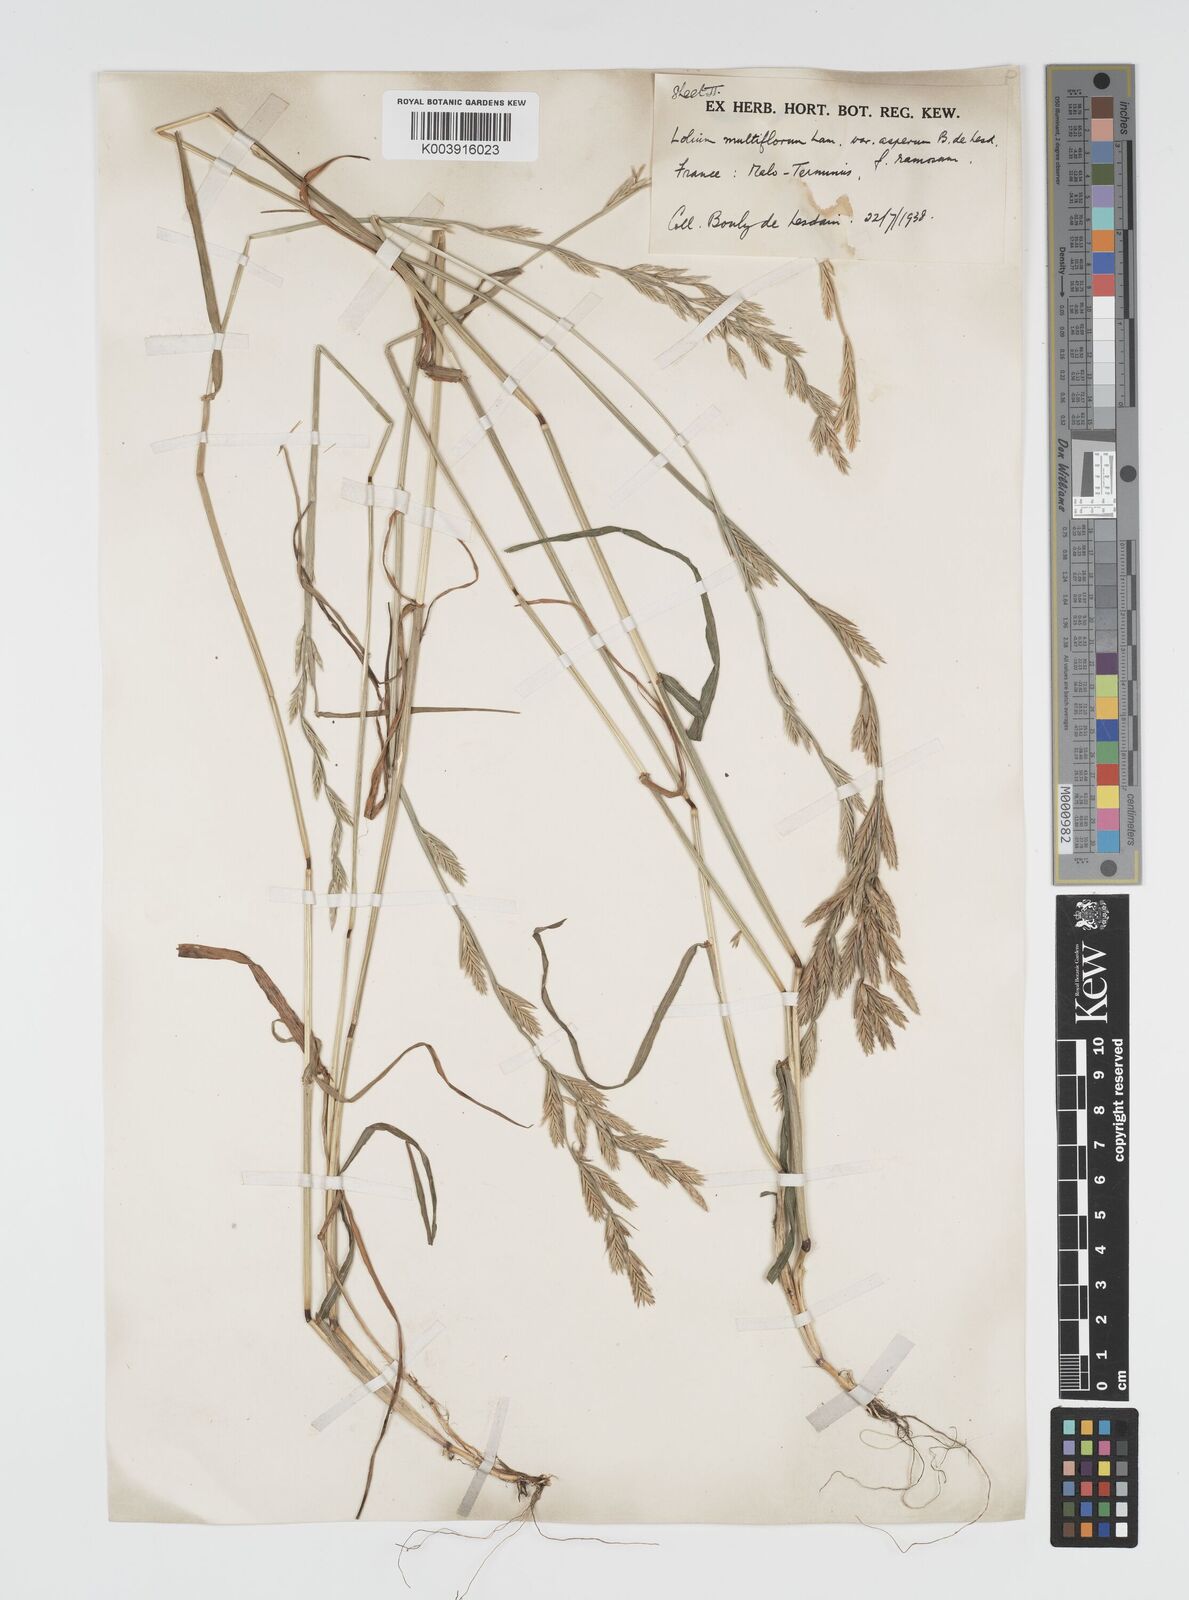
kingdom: Plantae
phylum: Tracheophyta
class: Liliopsida
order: Poales
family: Poaceae
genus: Lolium
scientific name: Lolium multiflorum
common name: Annual ryegrass
